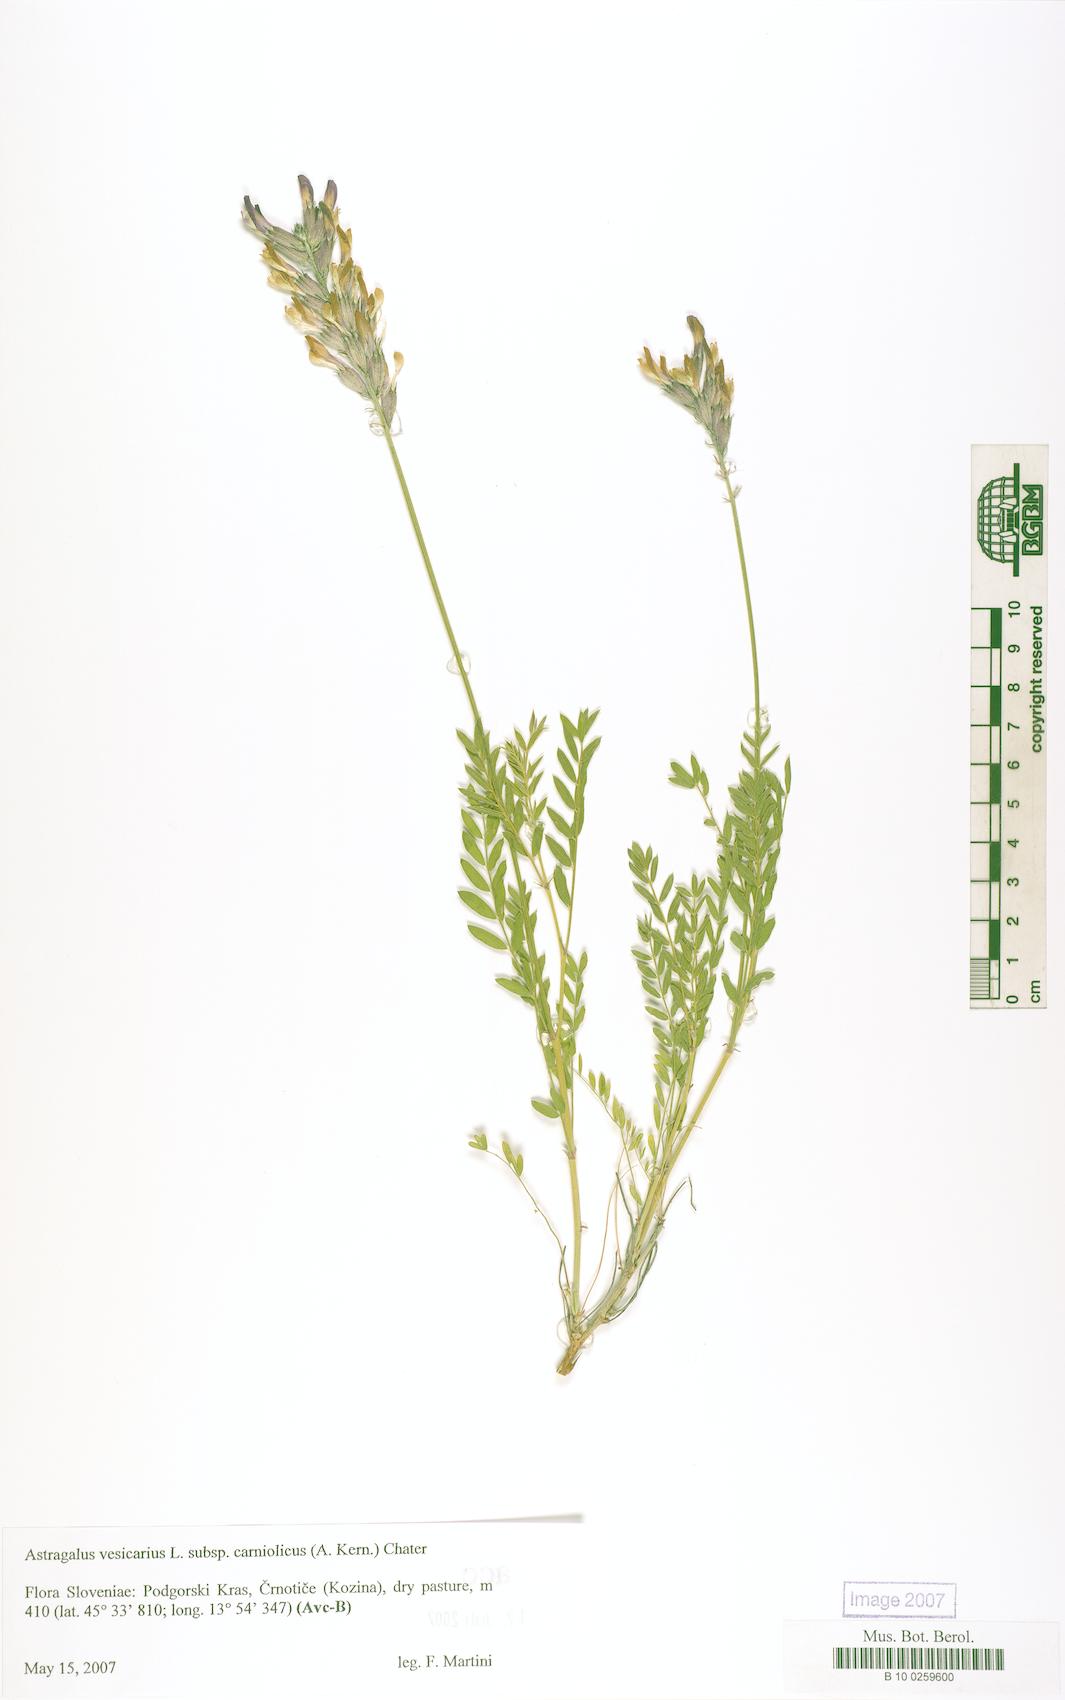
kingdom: Plantae
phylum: Tracheophyta
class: Magnoliopsida
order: Fabales
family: Fabaceae
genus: Astragalus
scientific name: Astragalus vesicarius
